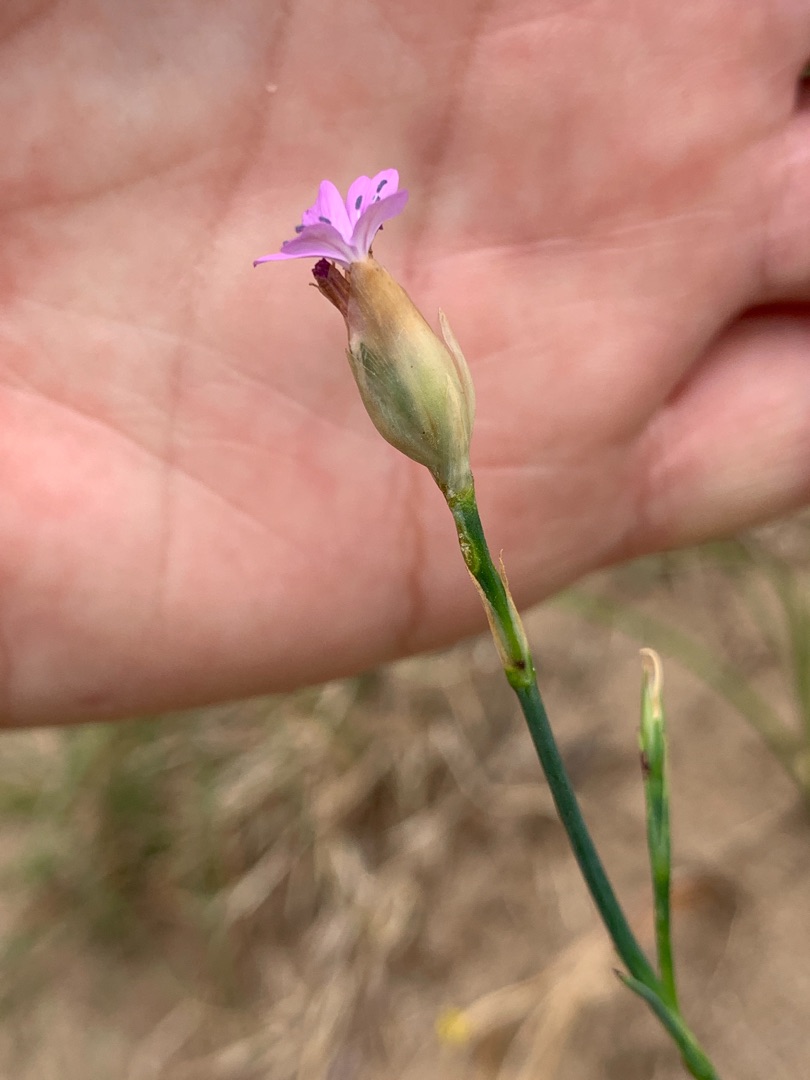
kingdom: Plantae
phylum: Tracheophyta
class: Magnoliopsida
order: Caryophyllales
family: Caryophyllaceae
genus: Petrorhagia
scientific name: Petrorhagia prolifera
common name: Knopnellike
